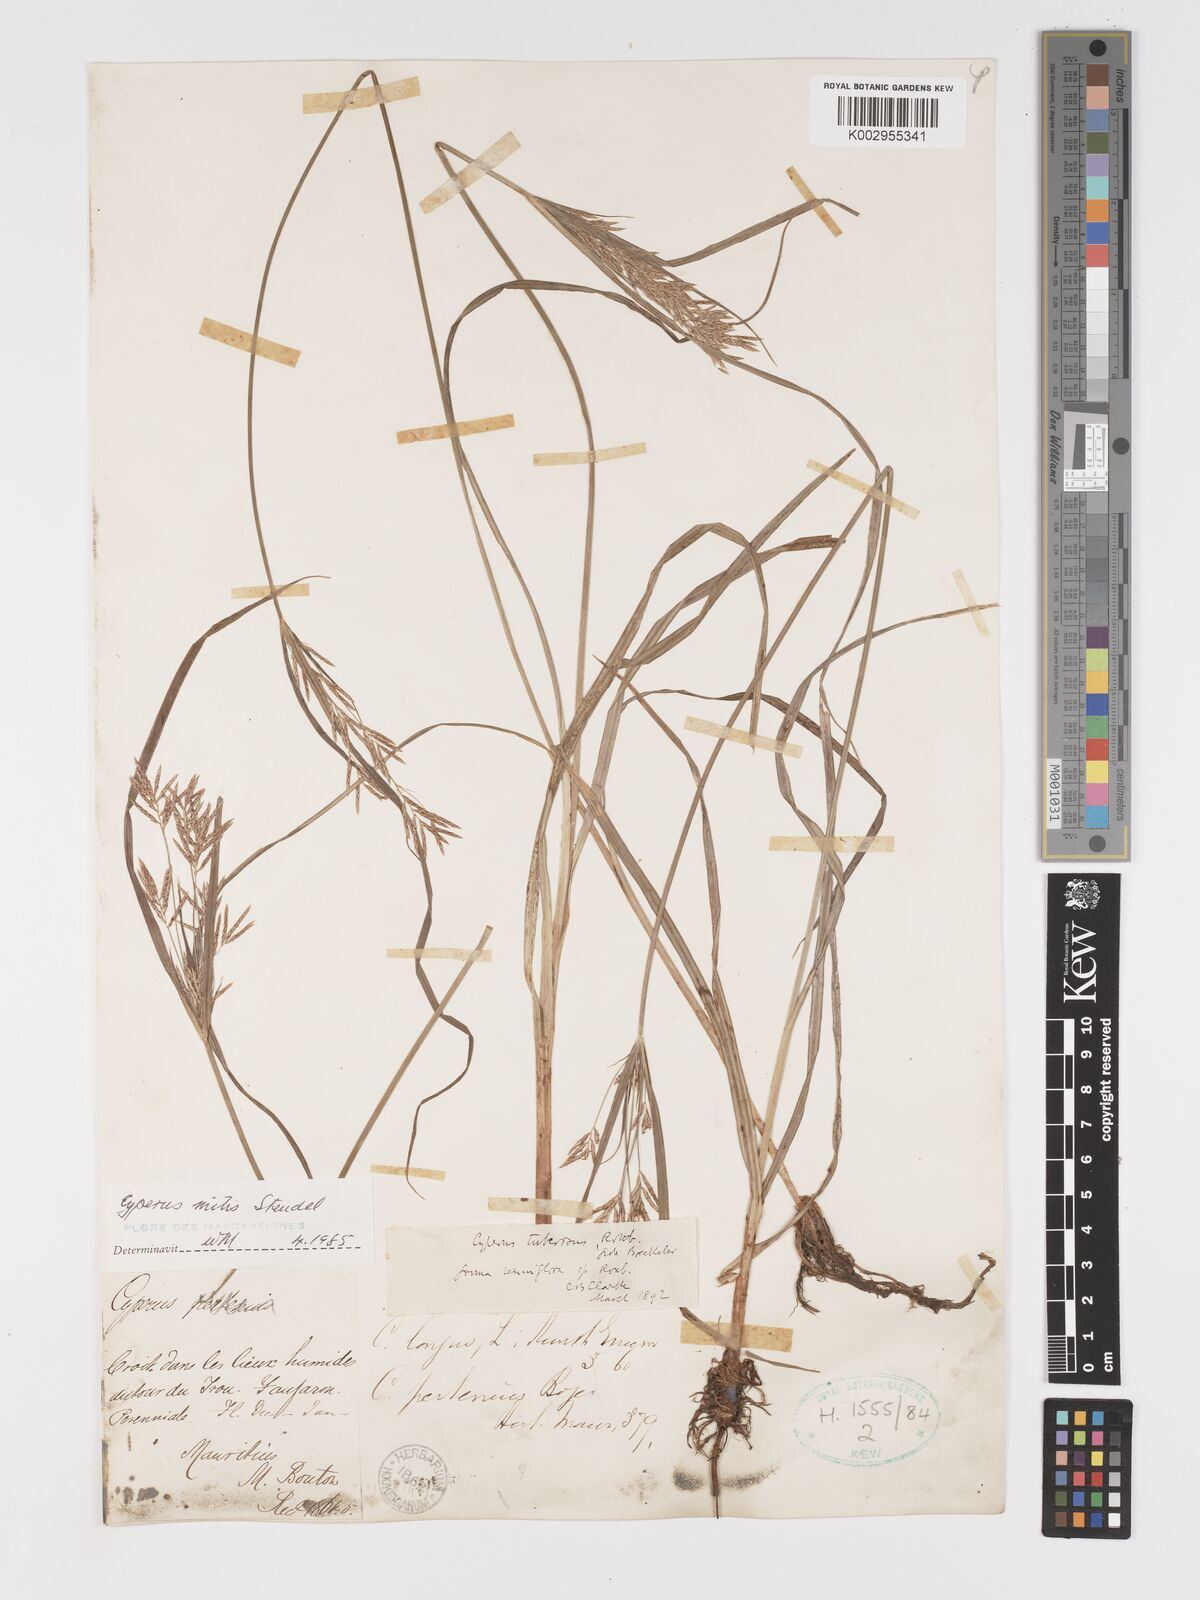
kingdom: Plantae
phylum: Tracheophyta
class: Liliopsida
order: Poales
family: Cyperaceae
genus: Cyperus
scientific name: Cyperus mitis
